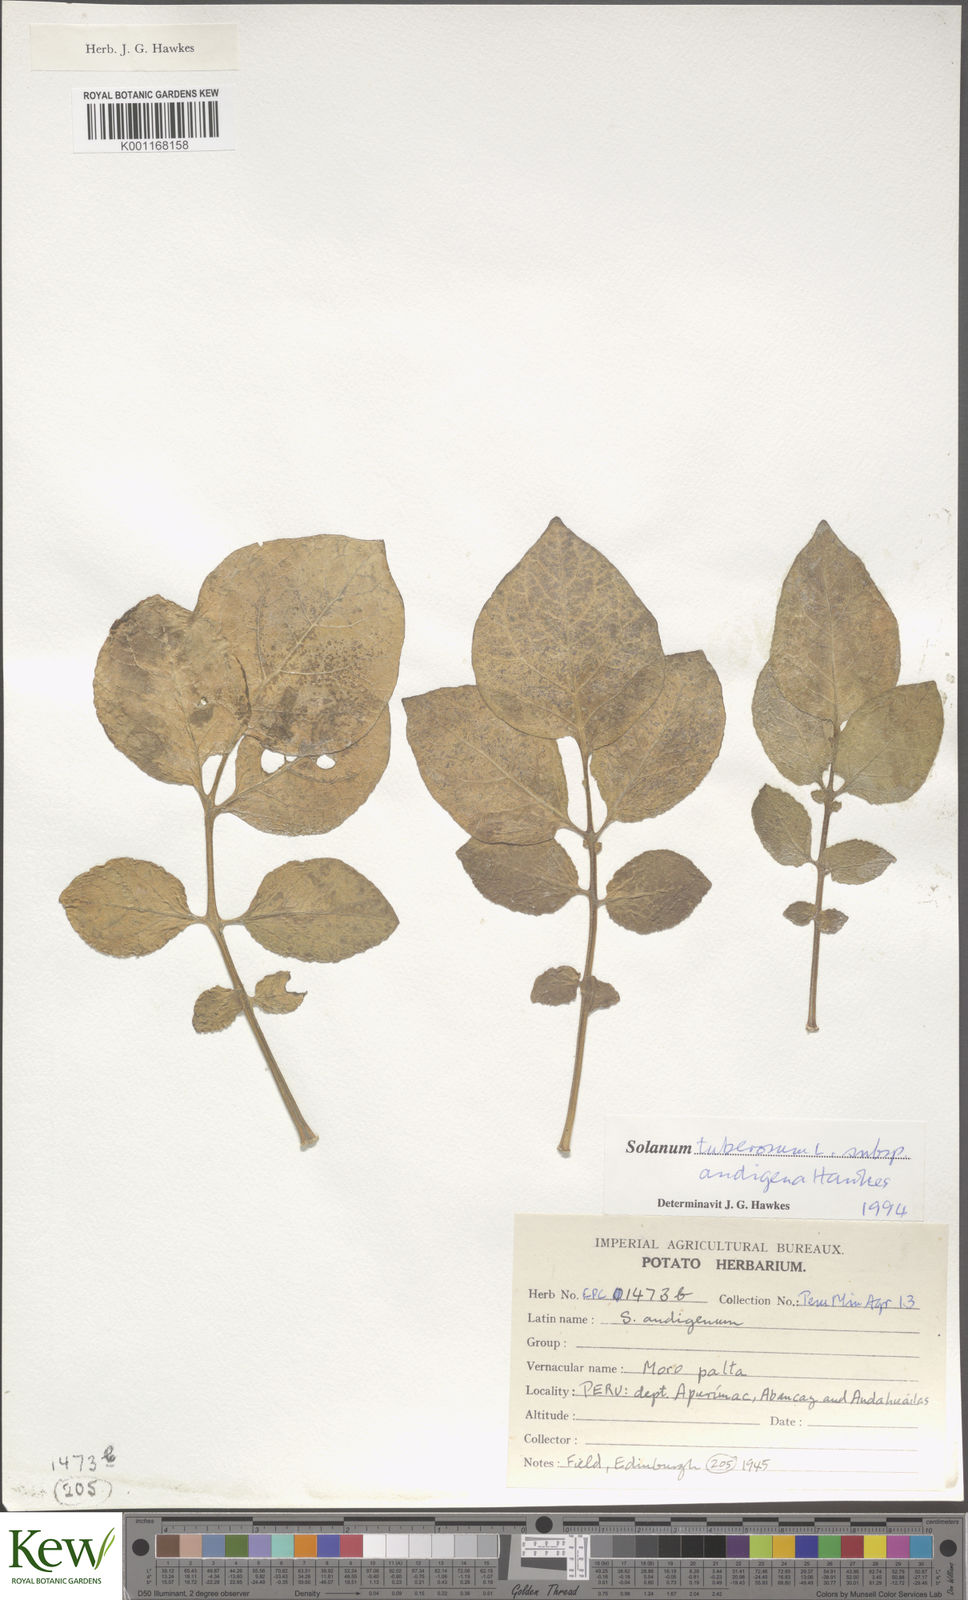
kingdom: Plantae
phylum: Tracheophyta
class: Magnoliopsida
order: Solanales
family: Solanaceae
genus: Solanum
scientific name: Solanum tuberosum
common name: Potato
